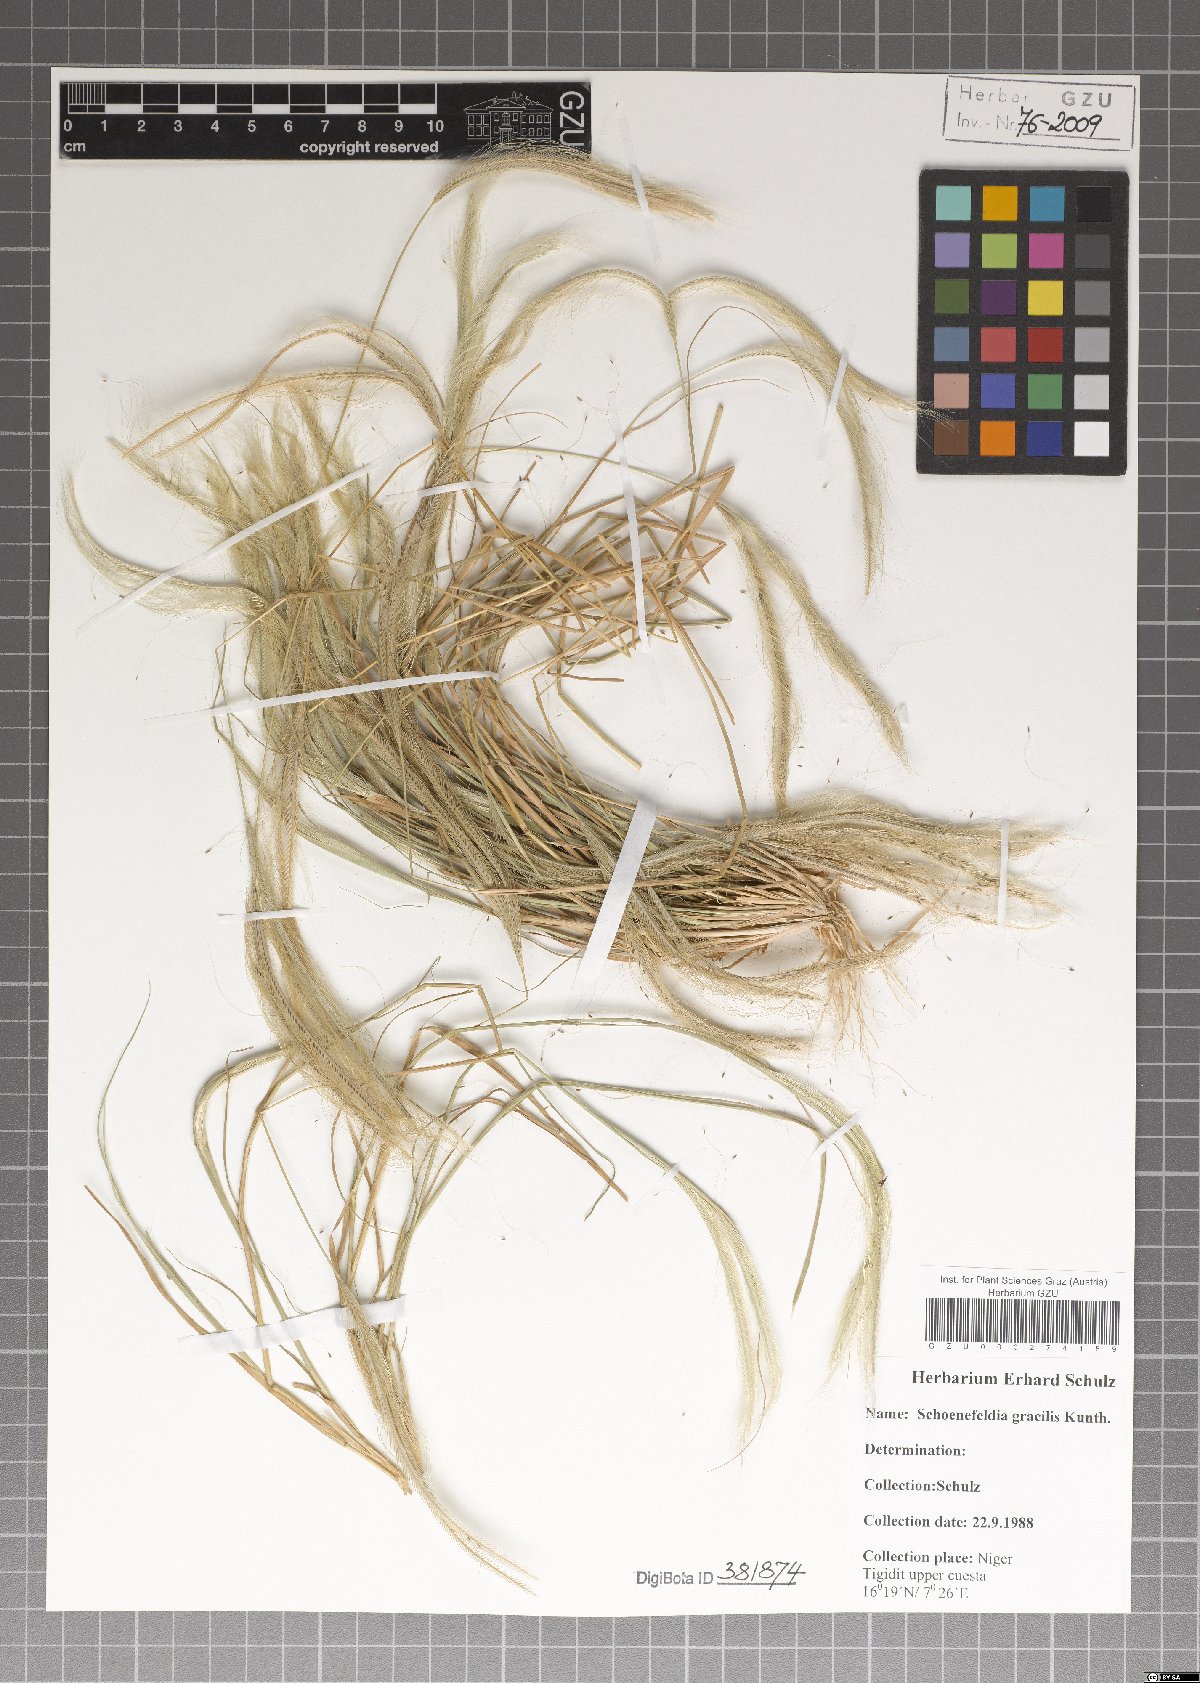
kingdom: Plantae
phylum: Tracheophyta
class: Liliopsida
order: Poales
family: Poaceae
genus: Schoenefeldia
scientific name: Schoenefeldia gracilis
